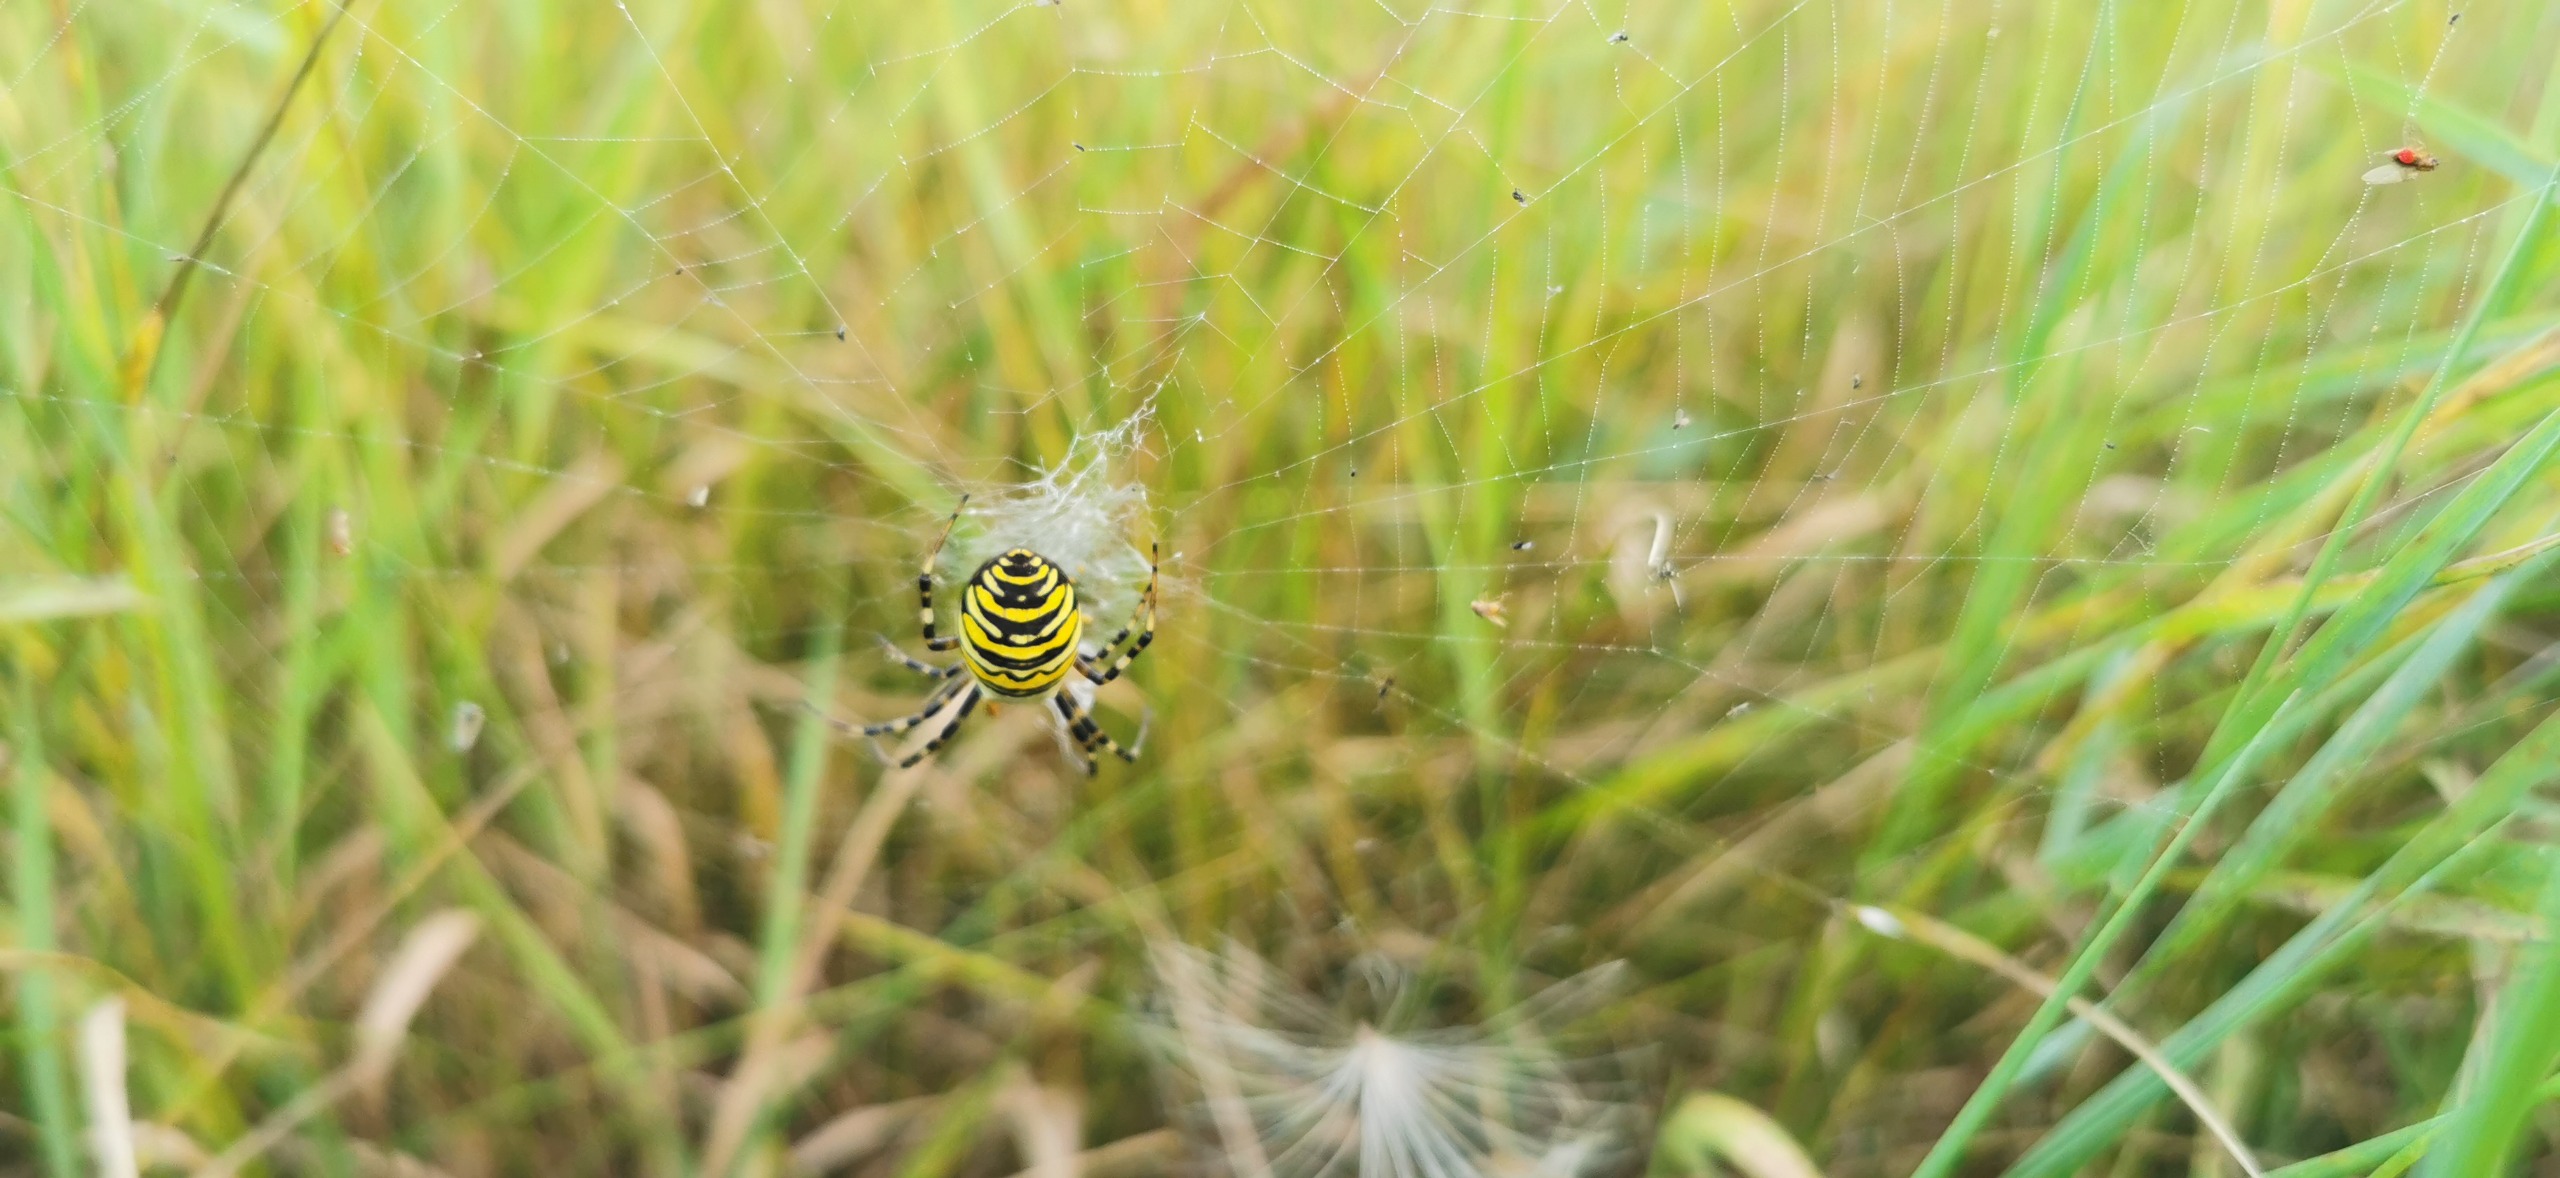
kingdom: Animalia
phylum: Arthropoda
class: Arachnida
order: Araneae
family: Araneidae
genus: Argiope
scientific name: Argiope bruennichi
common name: Hvepseedderkop
